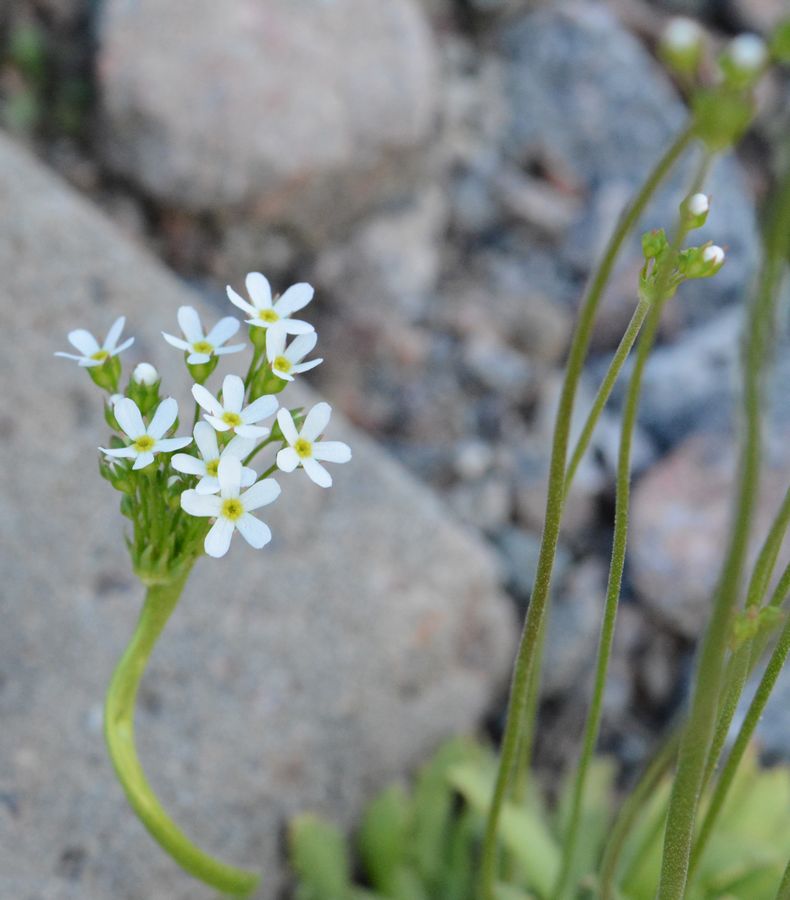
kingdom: Plantae
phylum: Tracheophyta
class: Magnoliopsida
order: Ericales
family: Primulaceae
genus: Androsace
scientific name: Androsace septentrionalis
